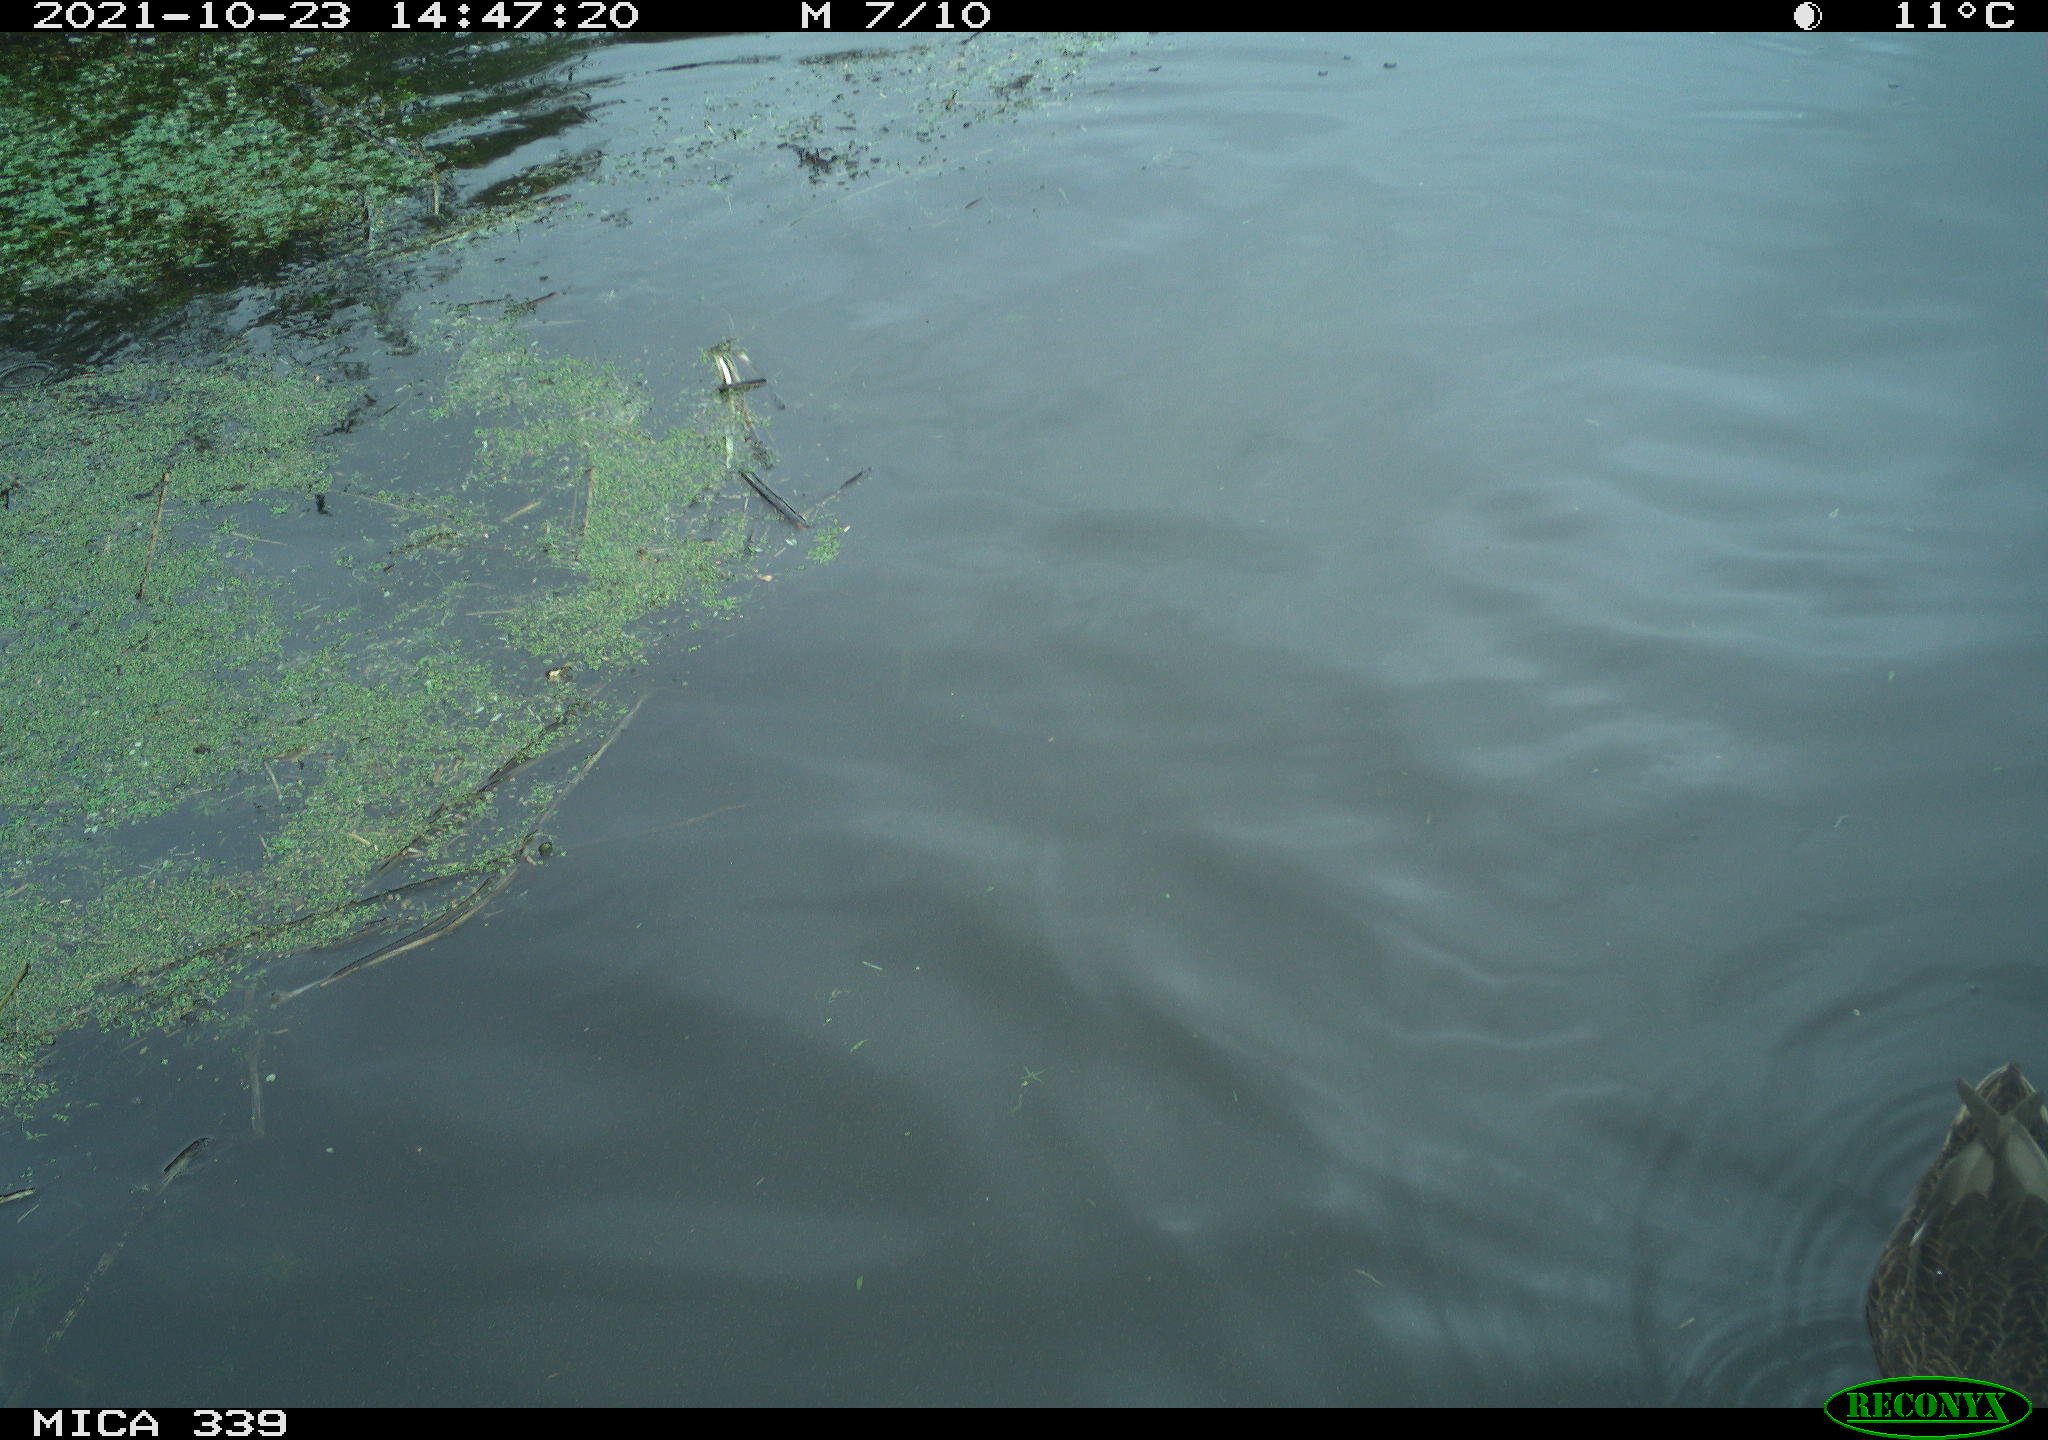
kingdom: Animalia
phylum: Chordata
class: Aves
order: Anseriformes
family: Anatidae
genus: Anas
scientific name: Anas platyrhynchos
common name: Mallard
